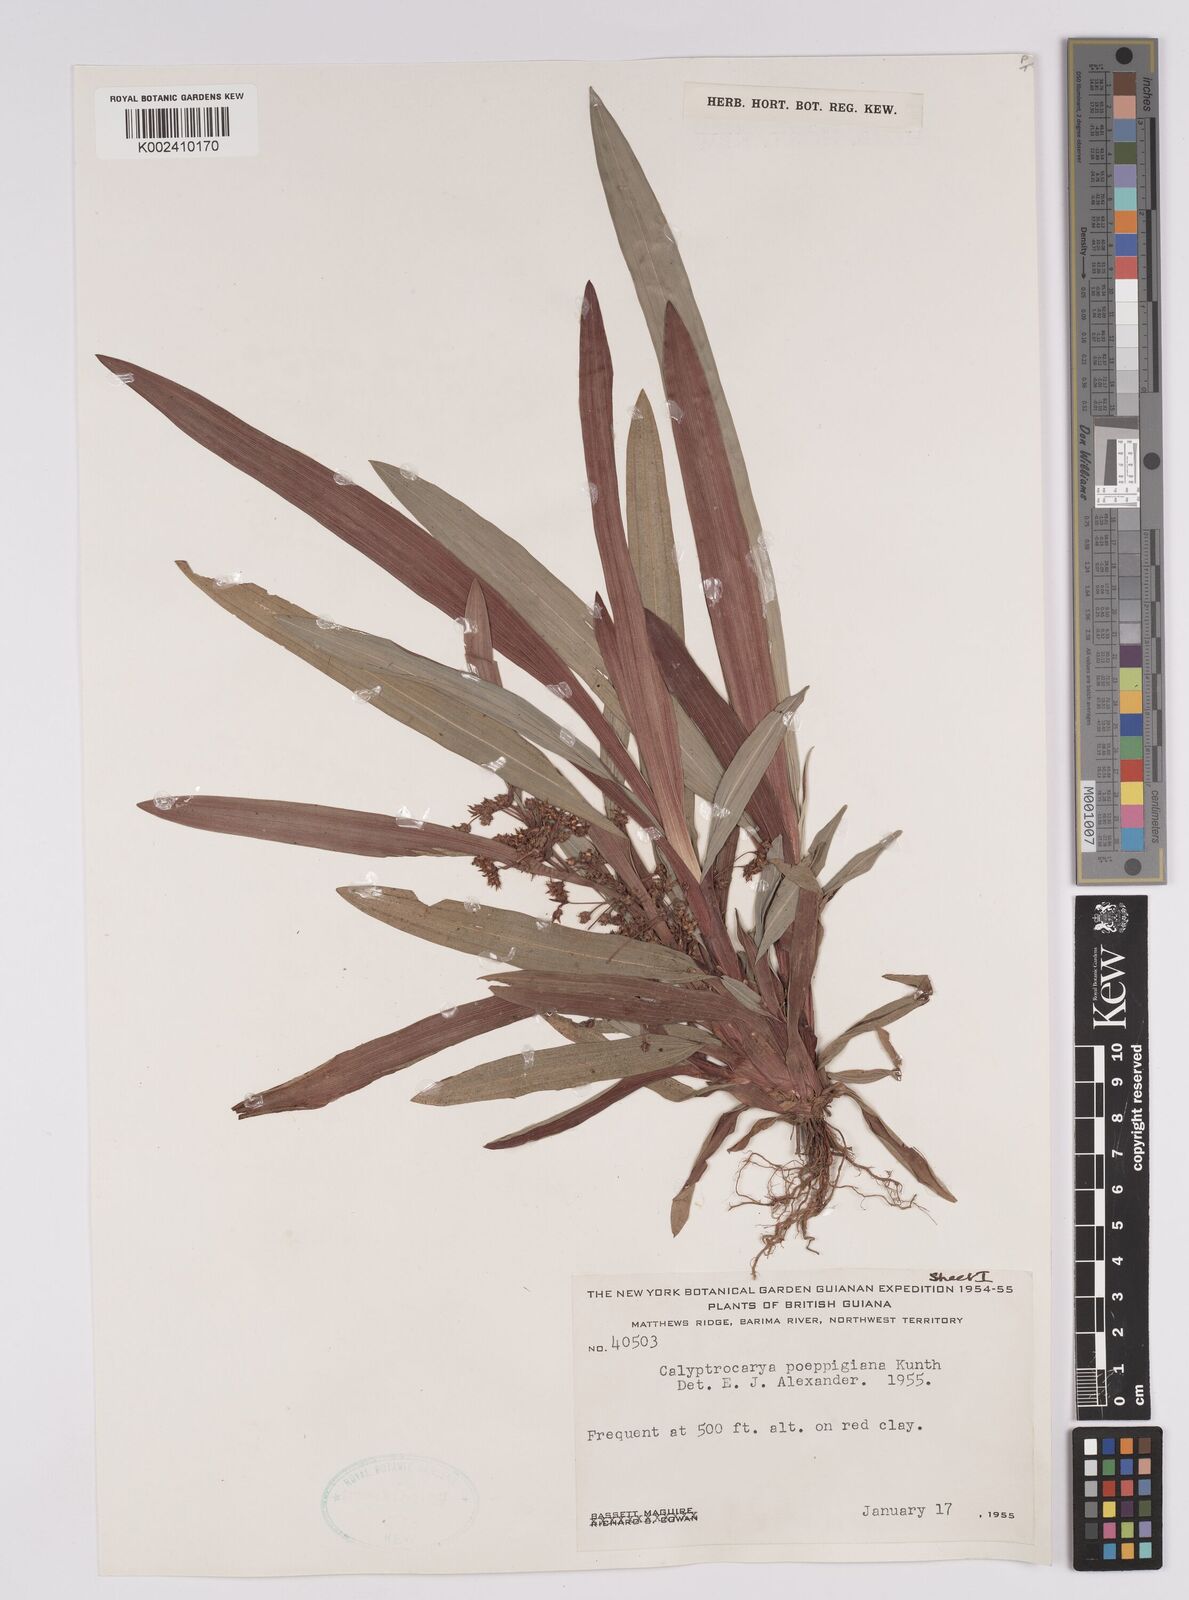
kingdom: Plantae
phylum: Tracheophyta
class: Liliopsida
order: Poales
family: Cyperaceae
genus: Calyptrocarya
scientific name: Calyptrocarya poeppigiana
